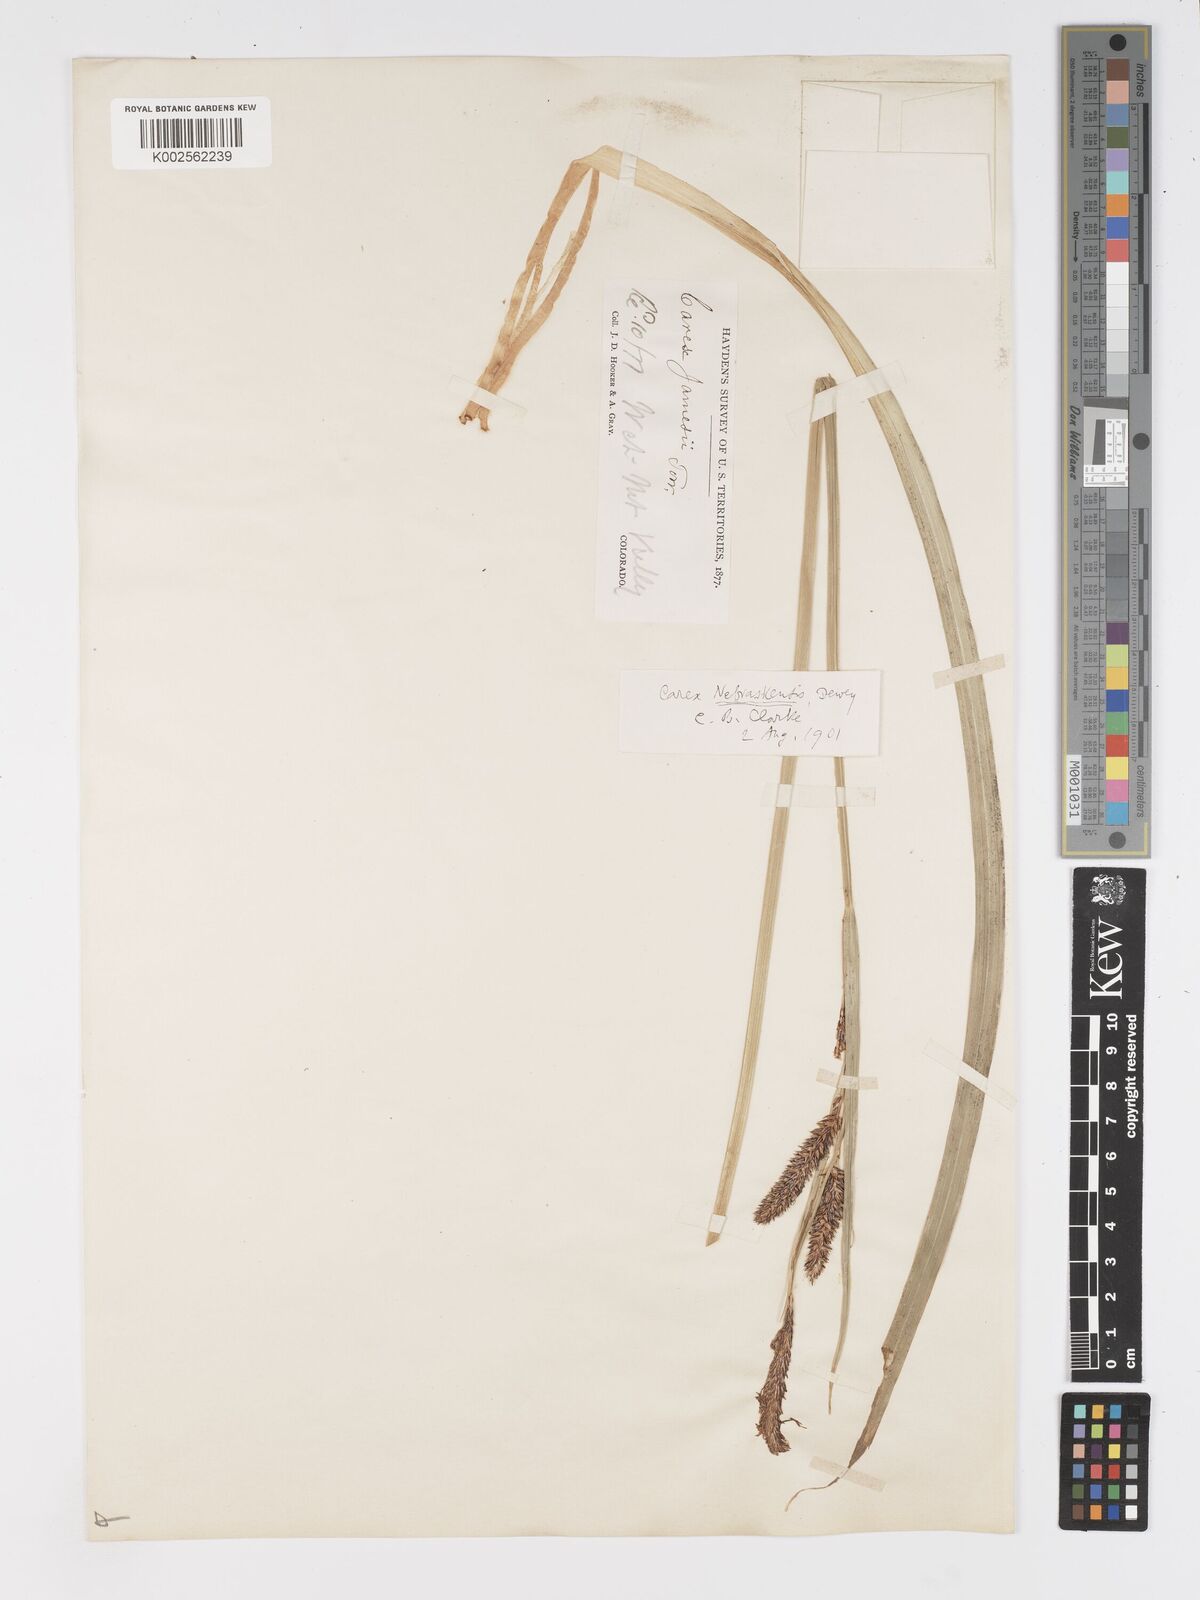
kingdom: Plantae
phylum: Tracheophyta
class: Liliopsida
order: Poales
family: Cyperaceae
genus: Carex
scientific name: Carex nebrascensis
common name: Nebraska sedge
